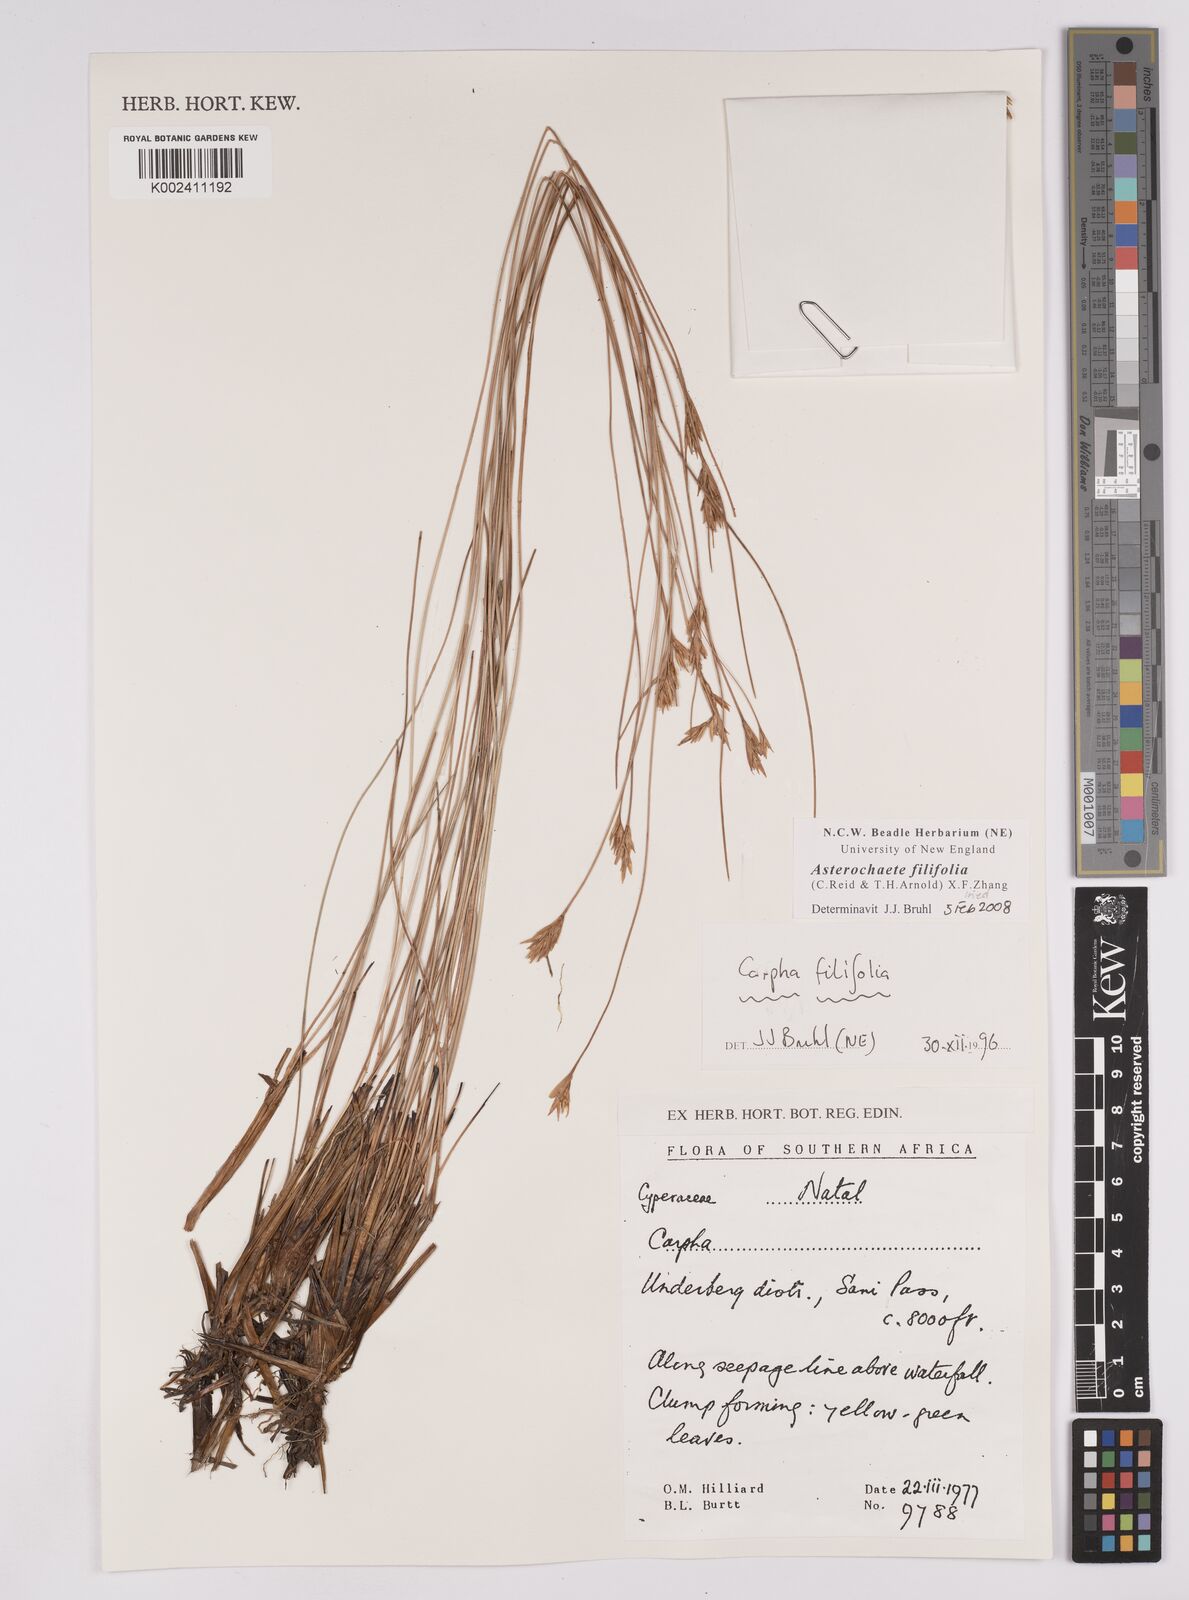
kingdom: Plantae
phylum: Tracheophyta
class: Liliopsida
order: Poales
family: Cyperaceae
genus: Carpha
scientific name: Carpha filifolia
